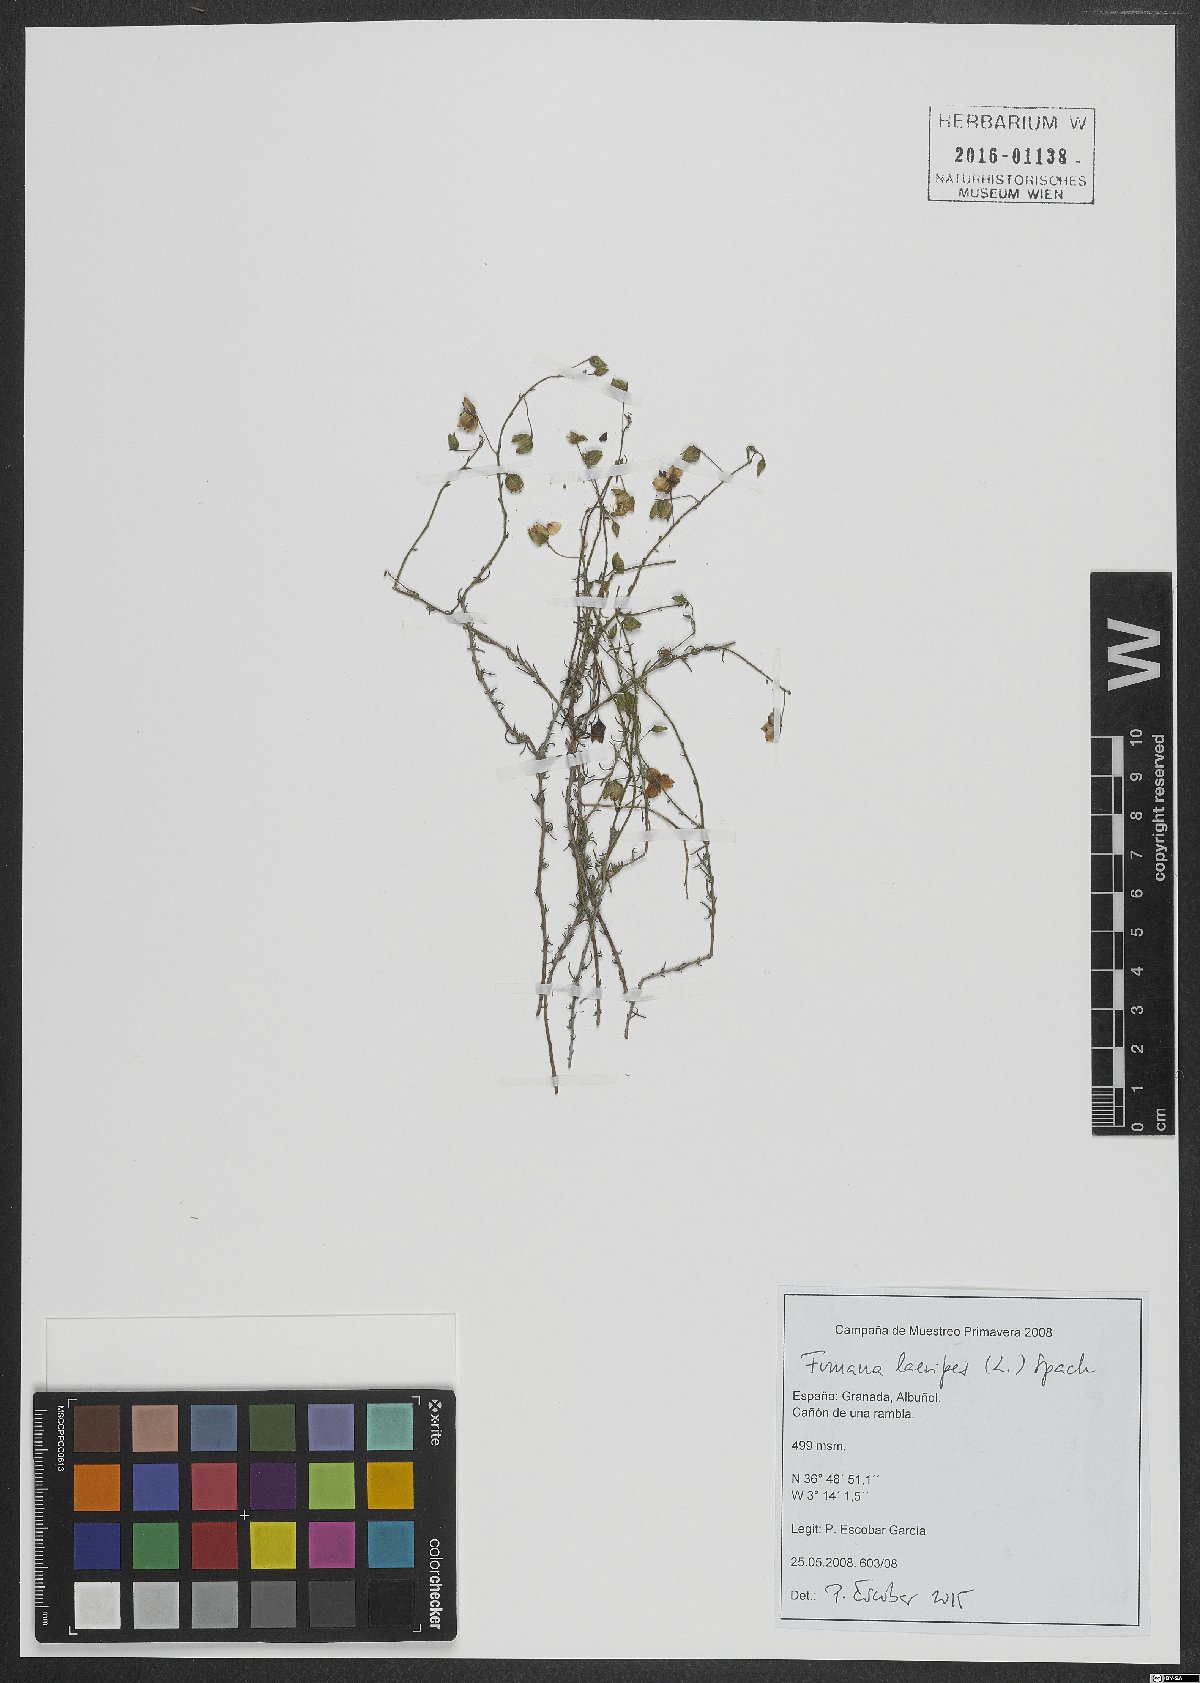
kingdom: Plantae
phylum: Tracheophyta
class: Magnoliopsida
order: Malvales
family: Cistaceae
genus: Fumana
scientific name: Fumana laevipes
